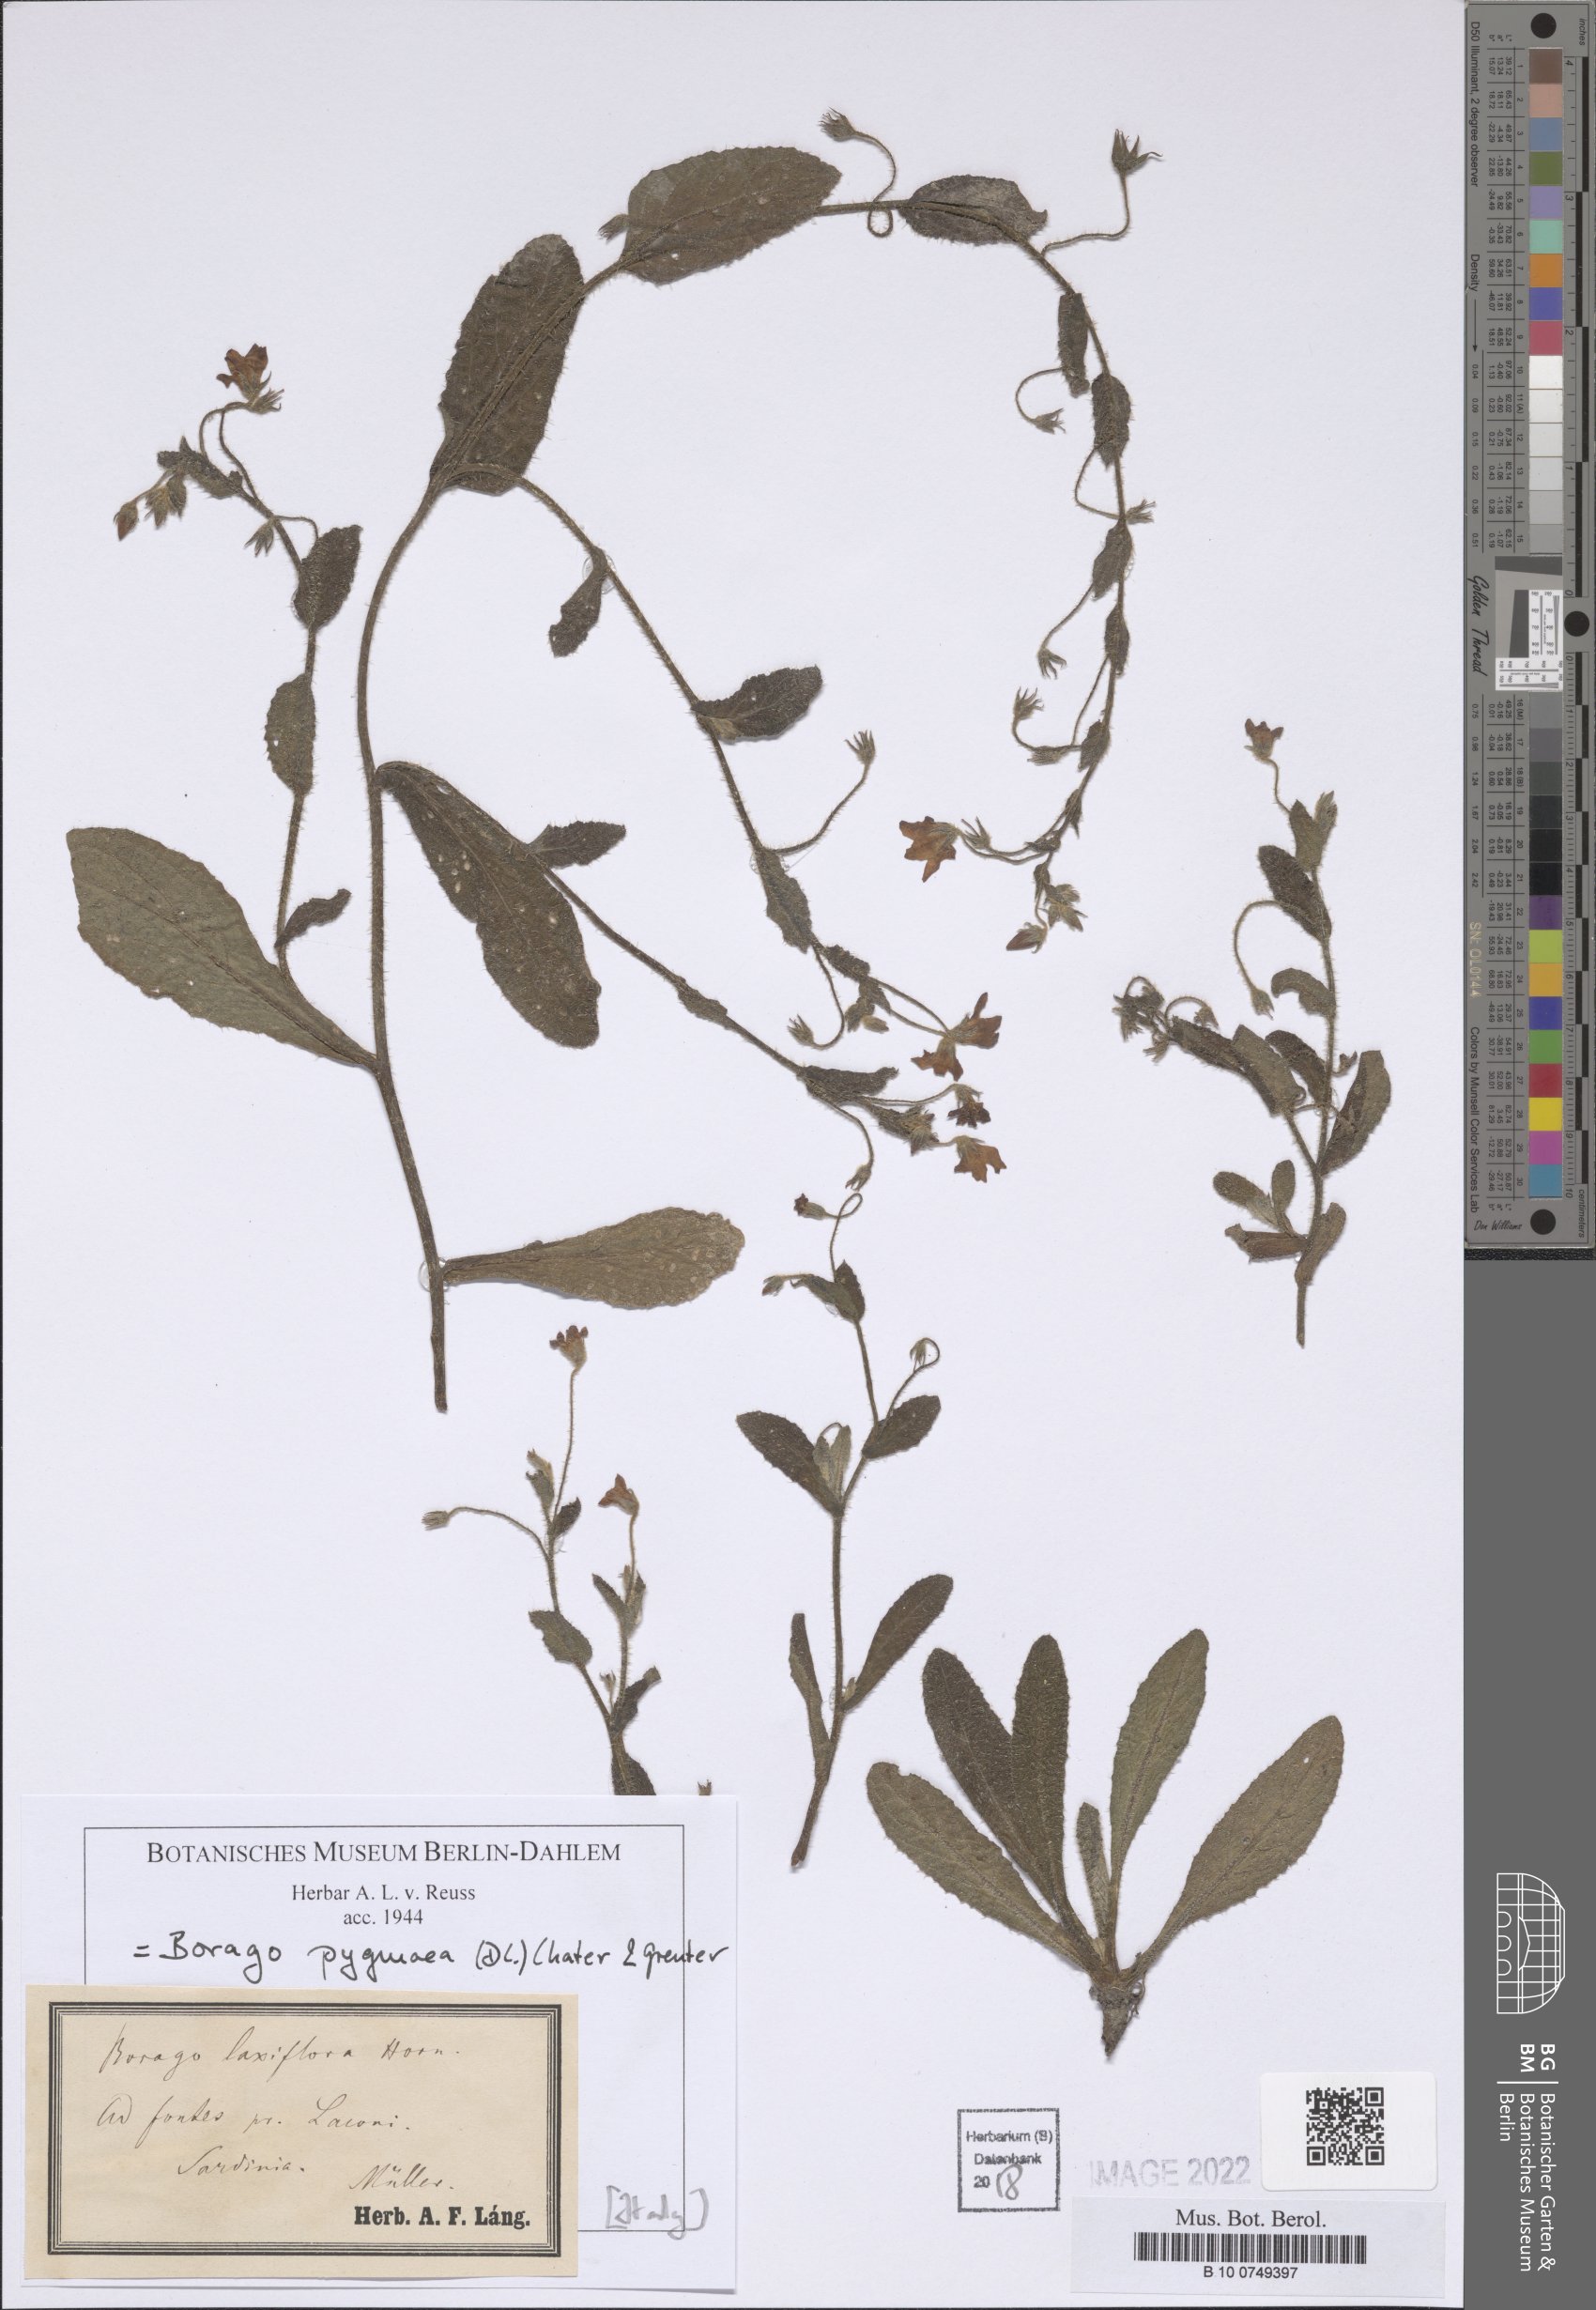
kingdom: Plantae
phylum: Tracheophyta
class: Magnoliopsida
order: Boraginales
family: Boraginaceae
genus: Borago
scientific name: Borago pygmaea
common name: Slender borage
